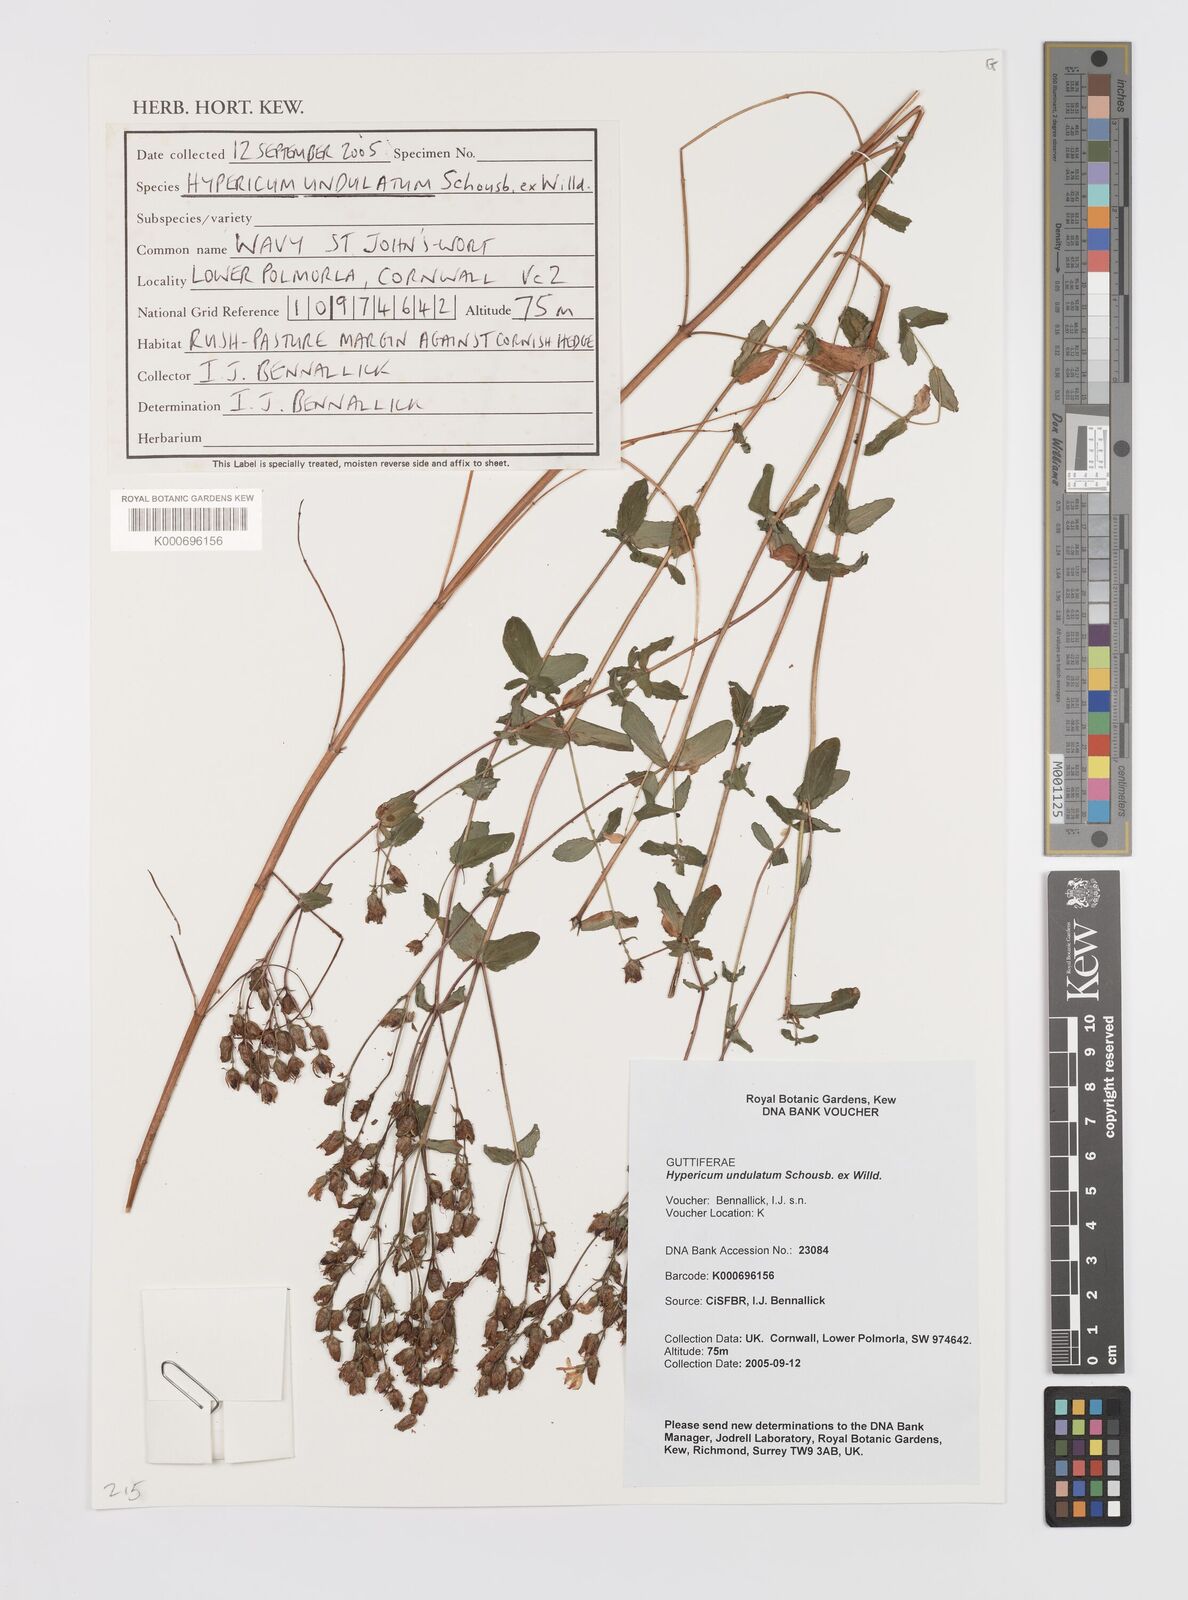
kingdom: Plantae
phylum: Tracheophyta
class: Magnoliopsida
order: Malpighiales
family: Hypericaceae
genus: Hypericum
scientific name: Hypericum undulatum
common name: Wavy st. john's-wort
